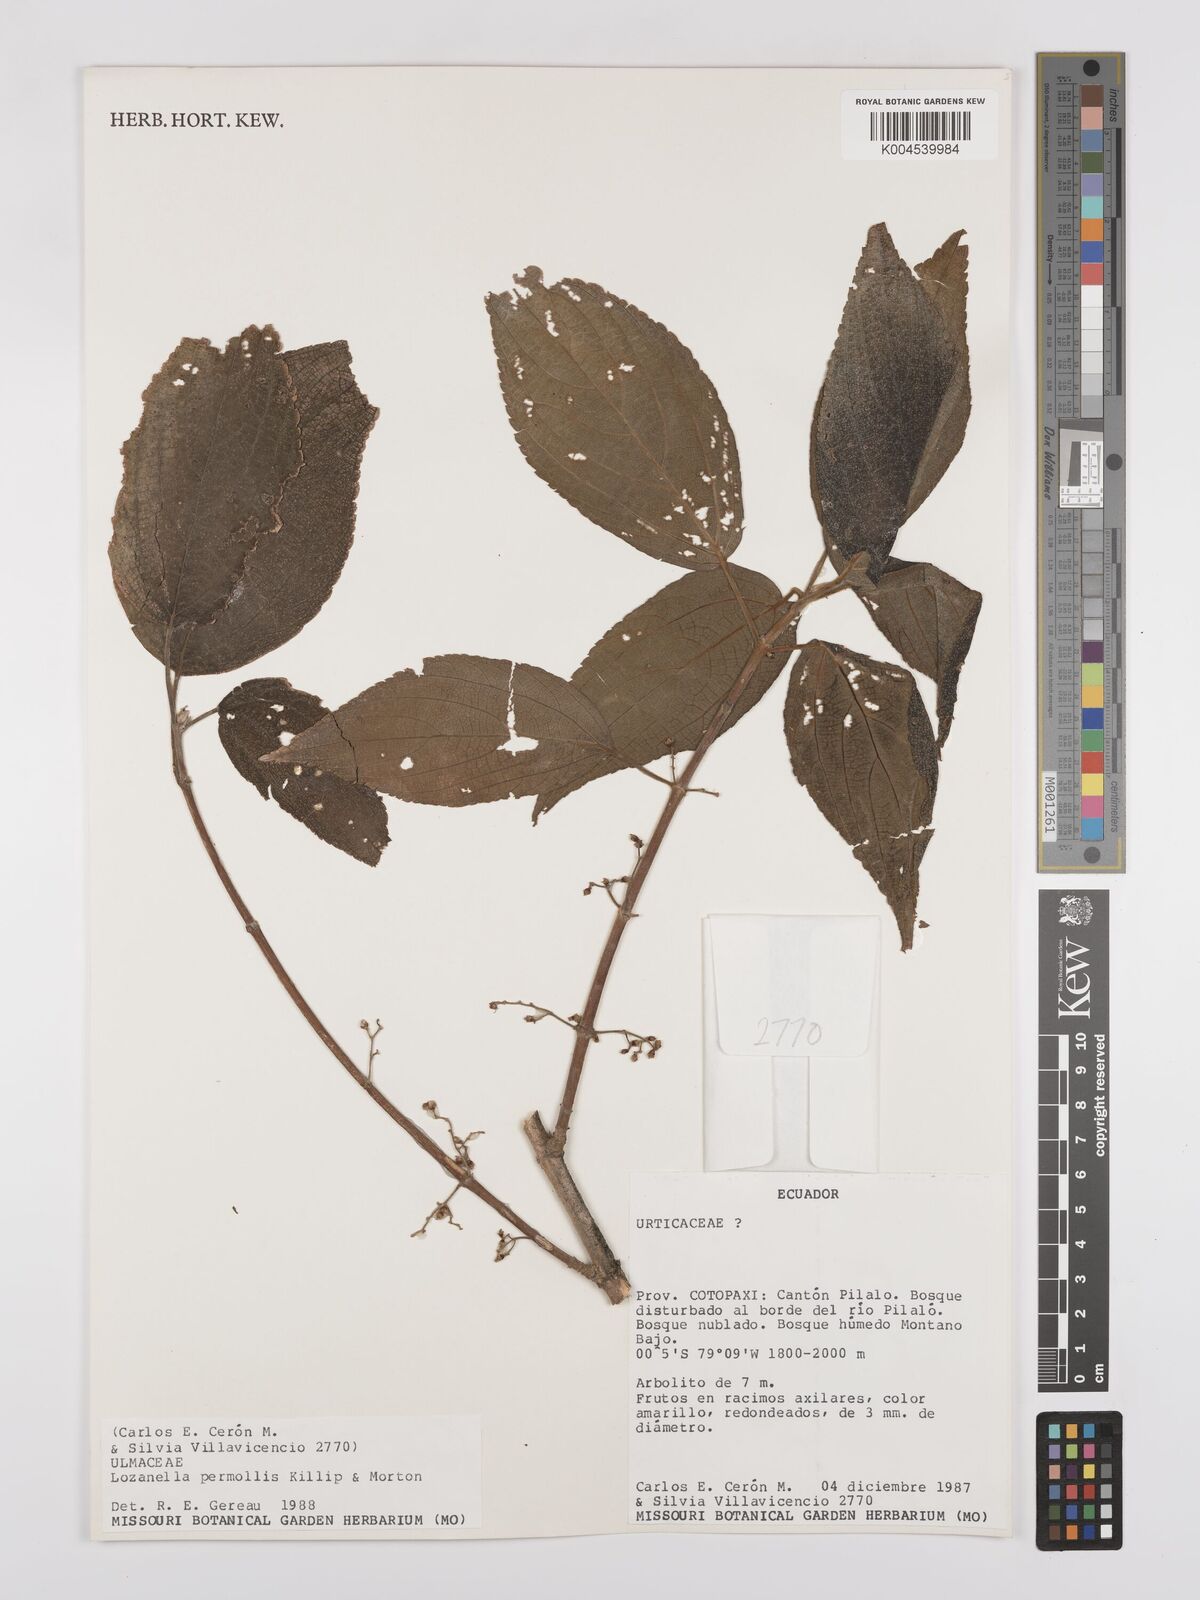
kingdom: Plantae
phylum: Tracheophyta
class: Magnoliopsida
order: Rosales
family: Cannabaceae
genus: Lozanella
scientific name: Lozanella enantiophylla
